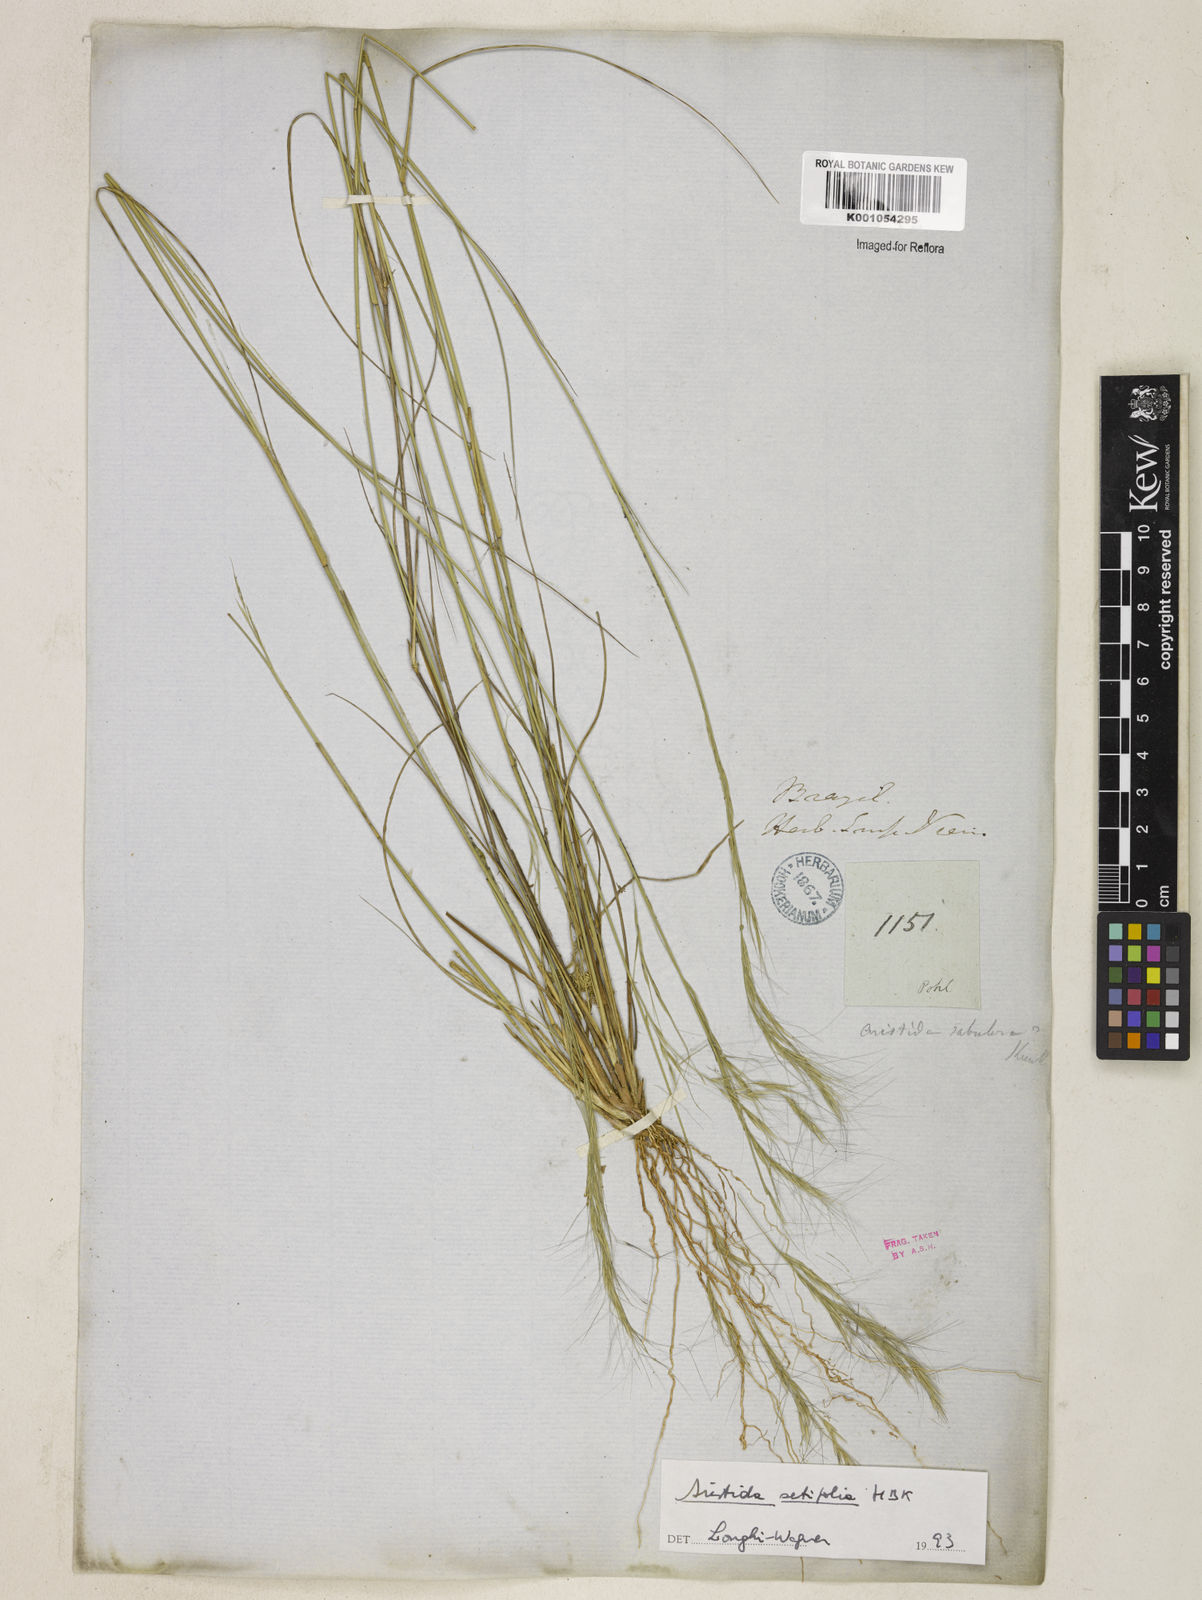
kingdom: Plantae
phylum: Tracheophyta
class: Liliopsida
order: Poales
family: Poaceae
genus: Aristida
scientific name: Aristida setifolia
